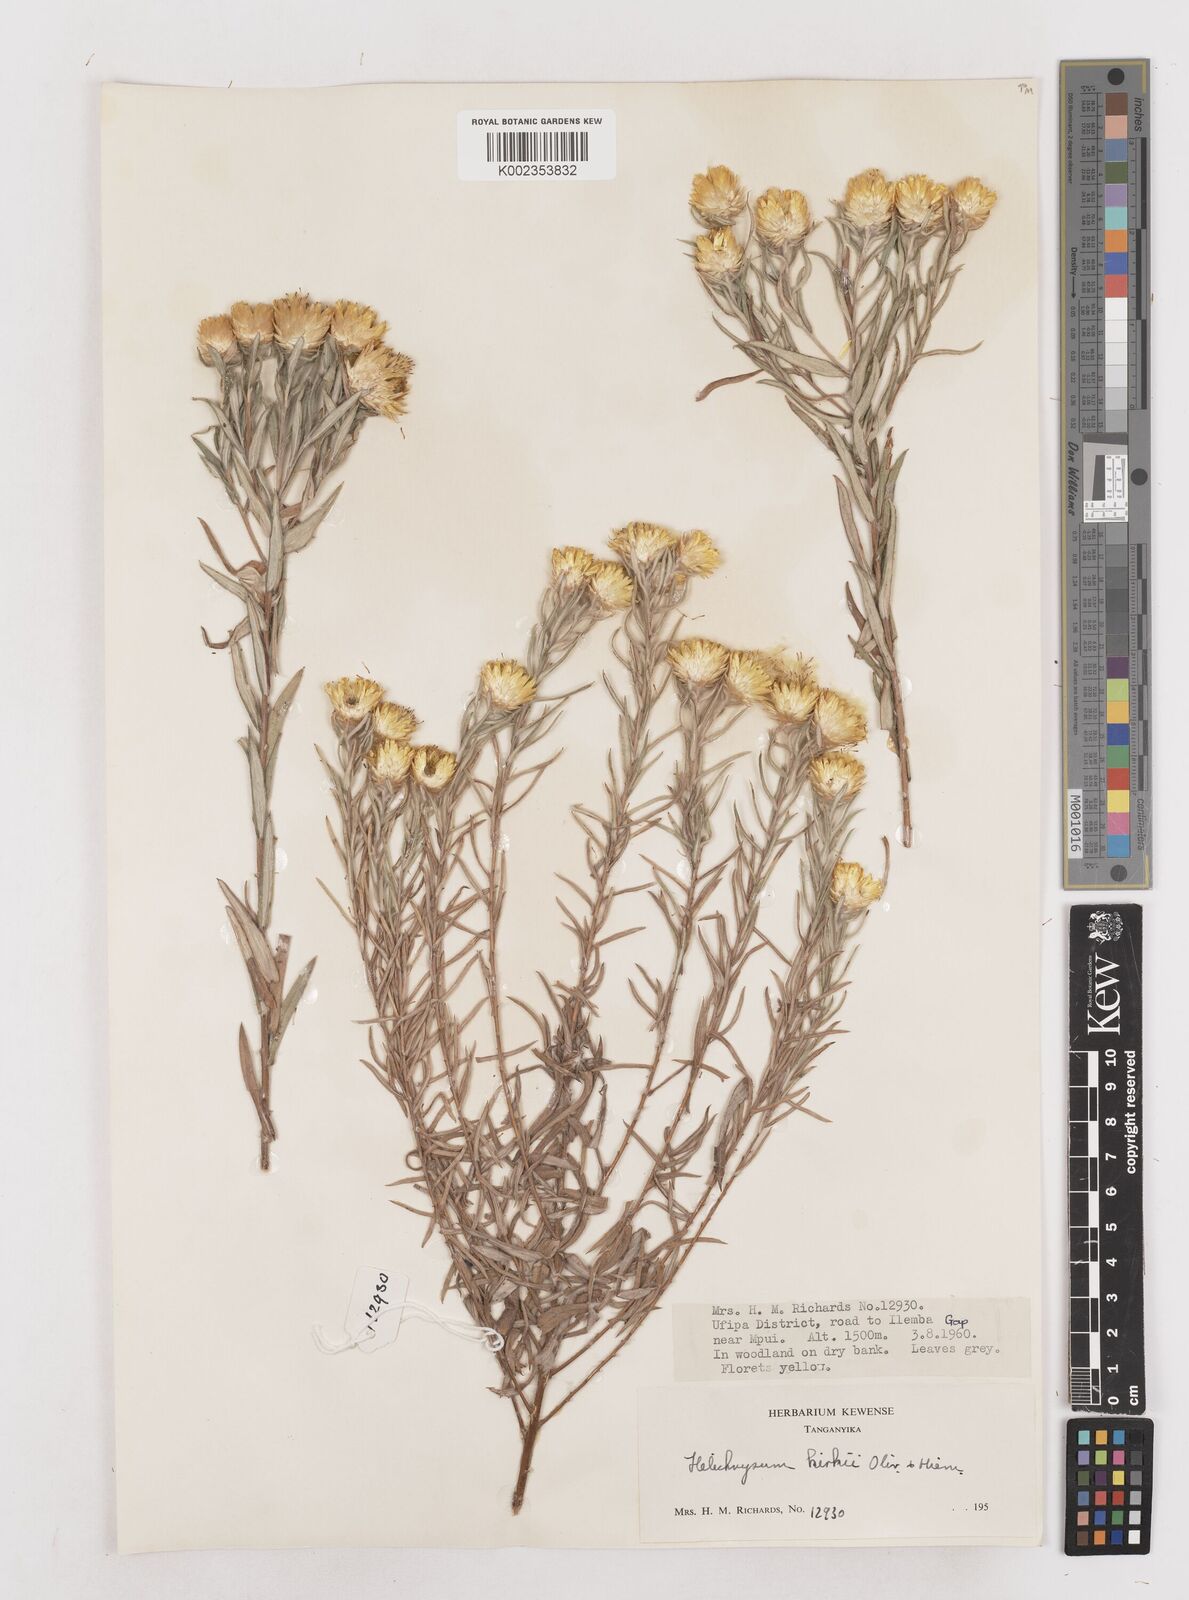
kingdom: Plantae
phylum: Tracheophyta
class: Magnoliopsida
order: Asterales
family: Asteraceae
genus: Helichrysum
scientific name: Helichrysum kirkii
